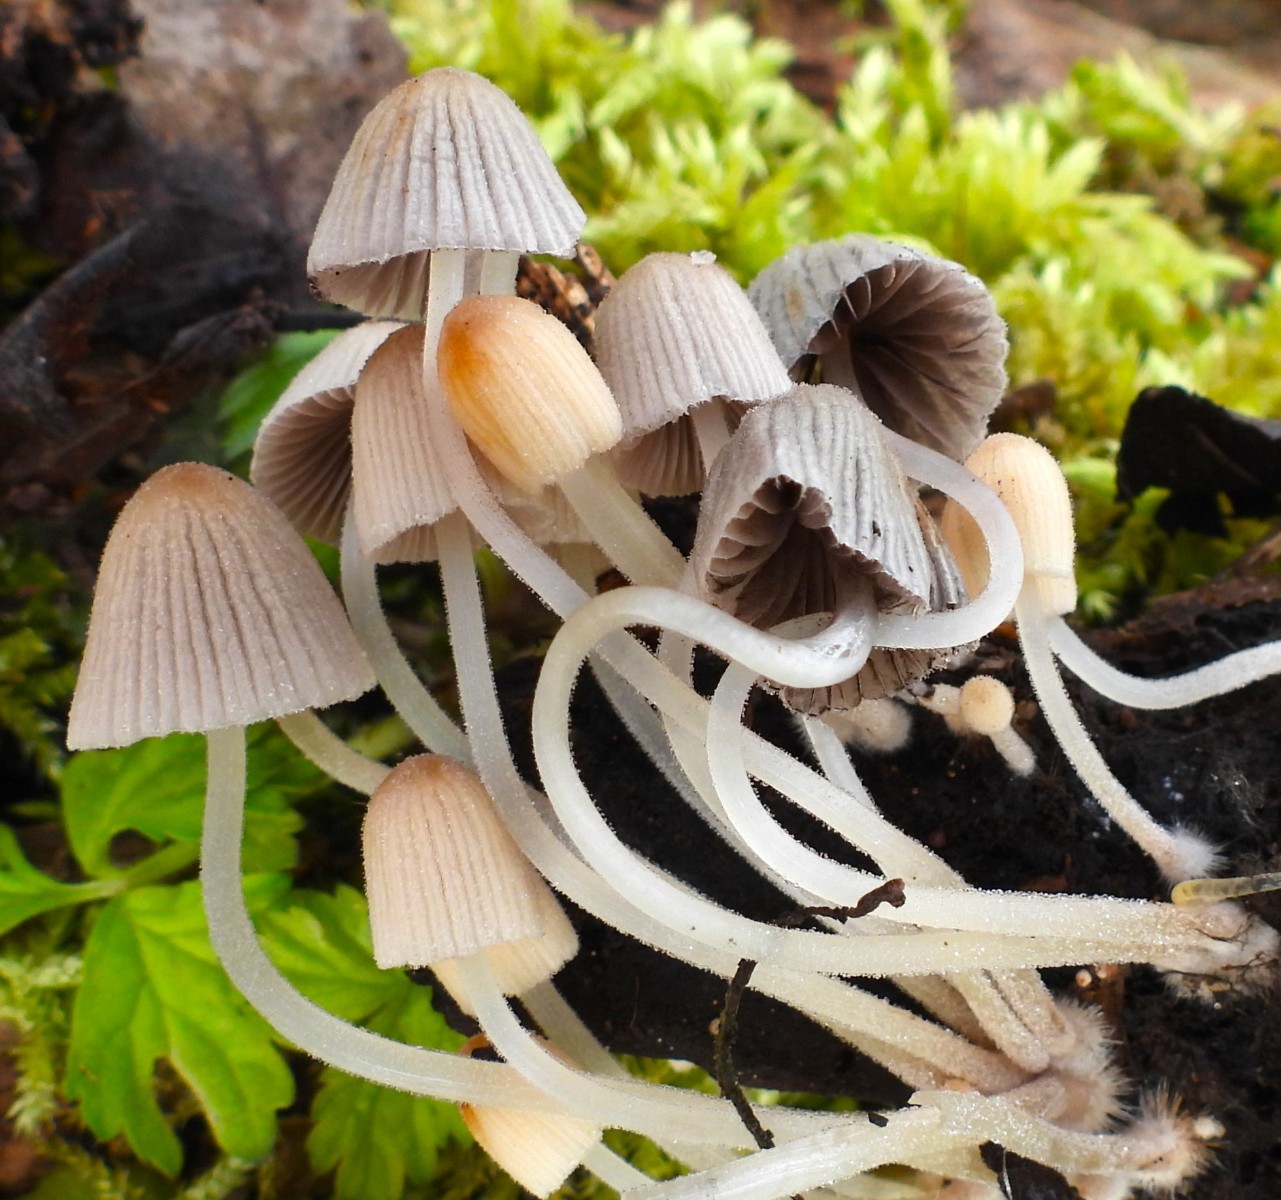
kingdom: Fungi
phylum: Basidiomycota
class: Agaricomycetes
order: Agaricales
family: Psathyrellaceae
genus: Coprinellus
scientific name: Coprinellus disseminatus
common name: bredsået blækhat
